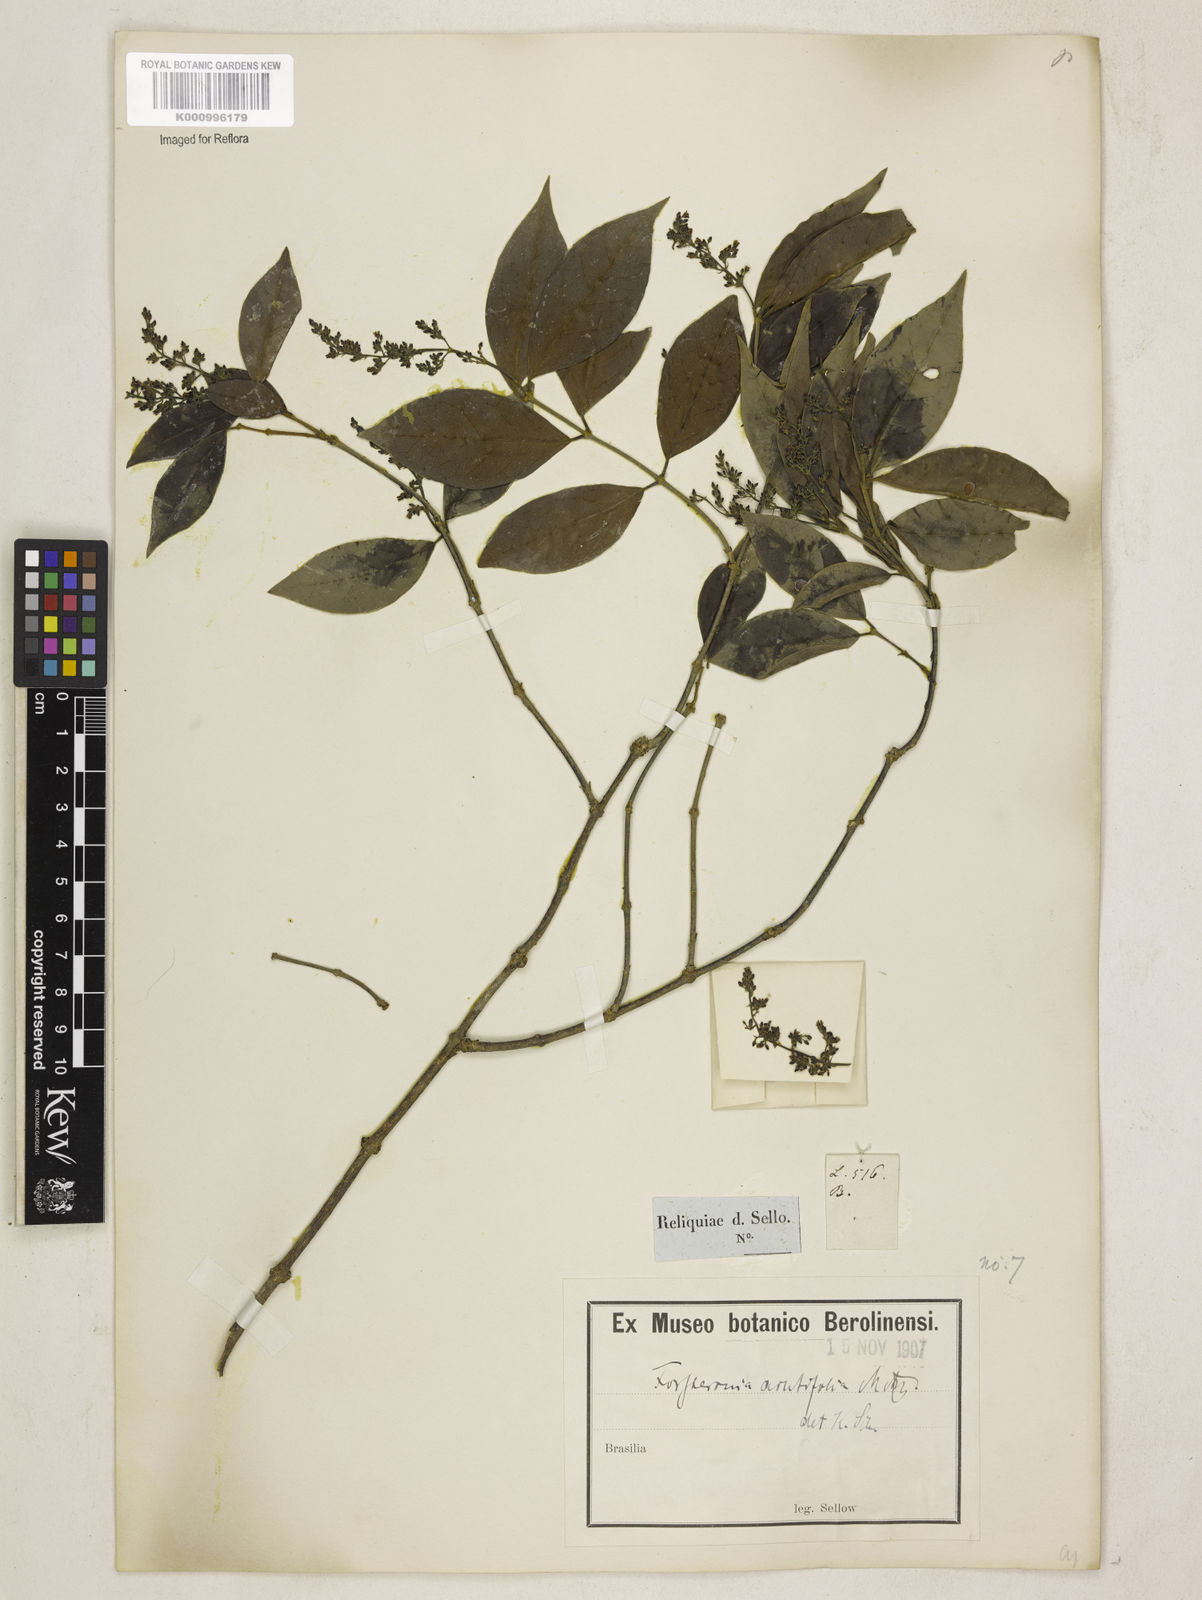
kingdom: Plantae
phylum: Tracheophyta
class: Magnoliopsida
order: Gentianales
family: Apocynaceae
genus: Forsteronia
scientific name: Forsteronia
